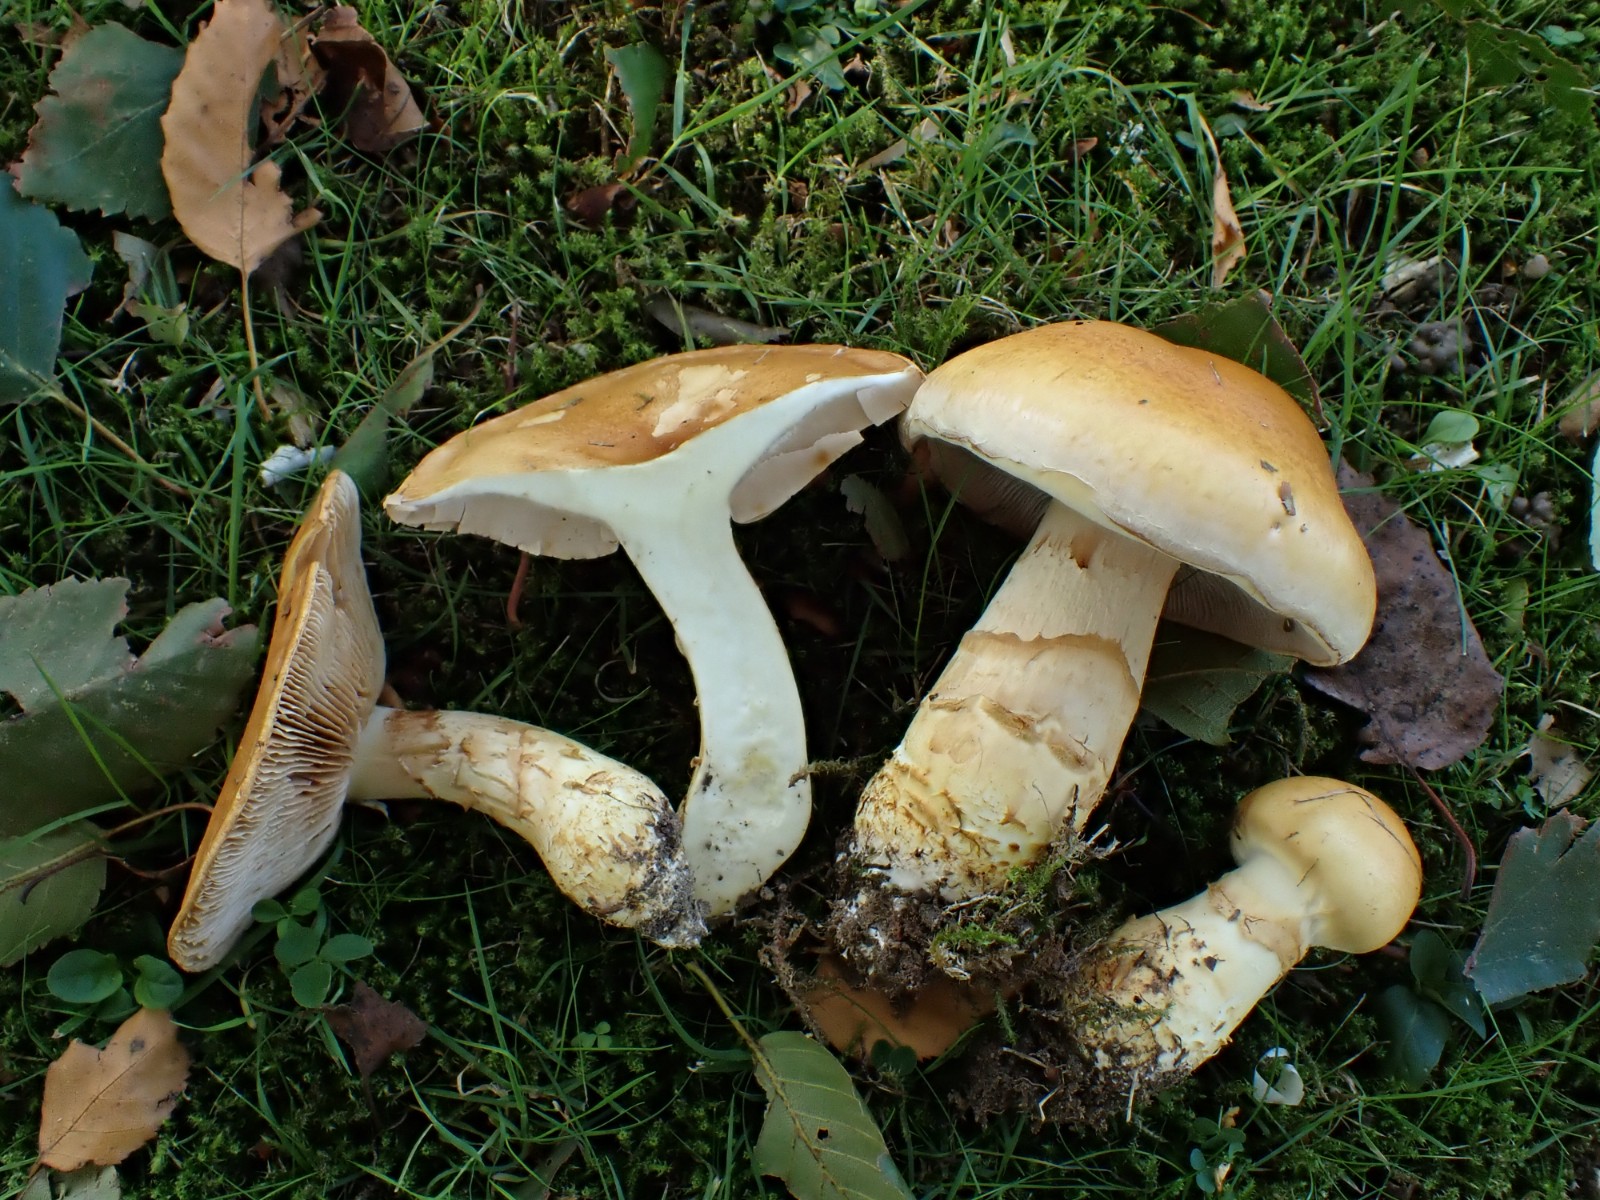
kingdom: Fungi
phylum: Basidiomycota
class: Agaricomycetes
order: Agaricales
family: Cortinariaceae
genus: Phlegmacium
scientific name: Phlegmacium triumphans
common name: gulbæltet slørhat
